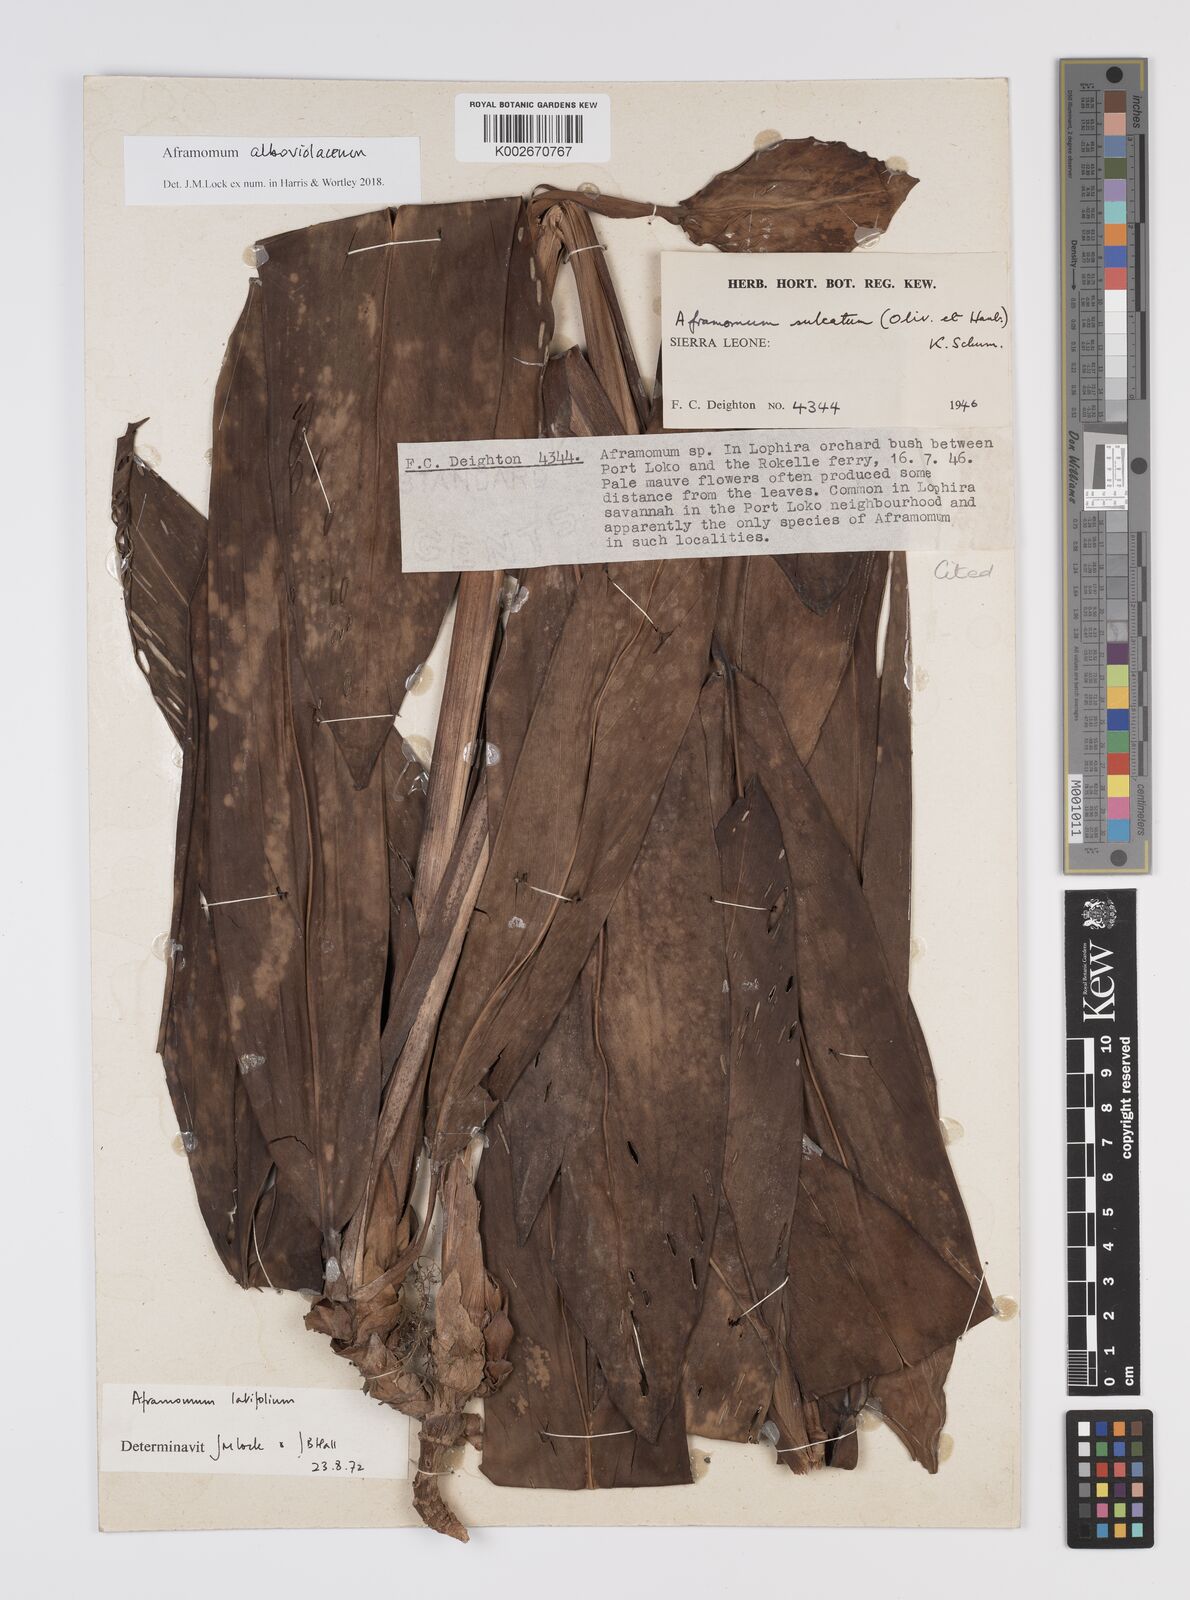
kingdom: Plantae
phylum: Tracheophyta
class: Liliopsida
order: Zingiberales
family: Zingiberaceae
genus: Aframomum
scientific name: Aframomum alboviolaceum
